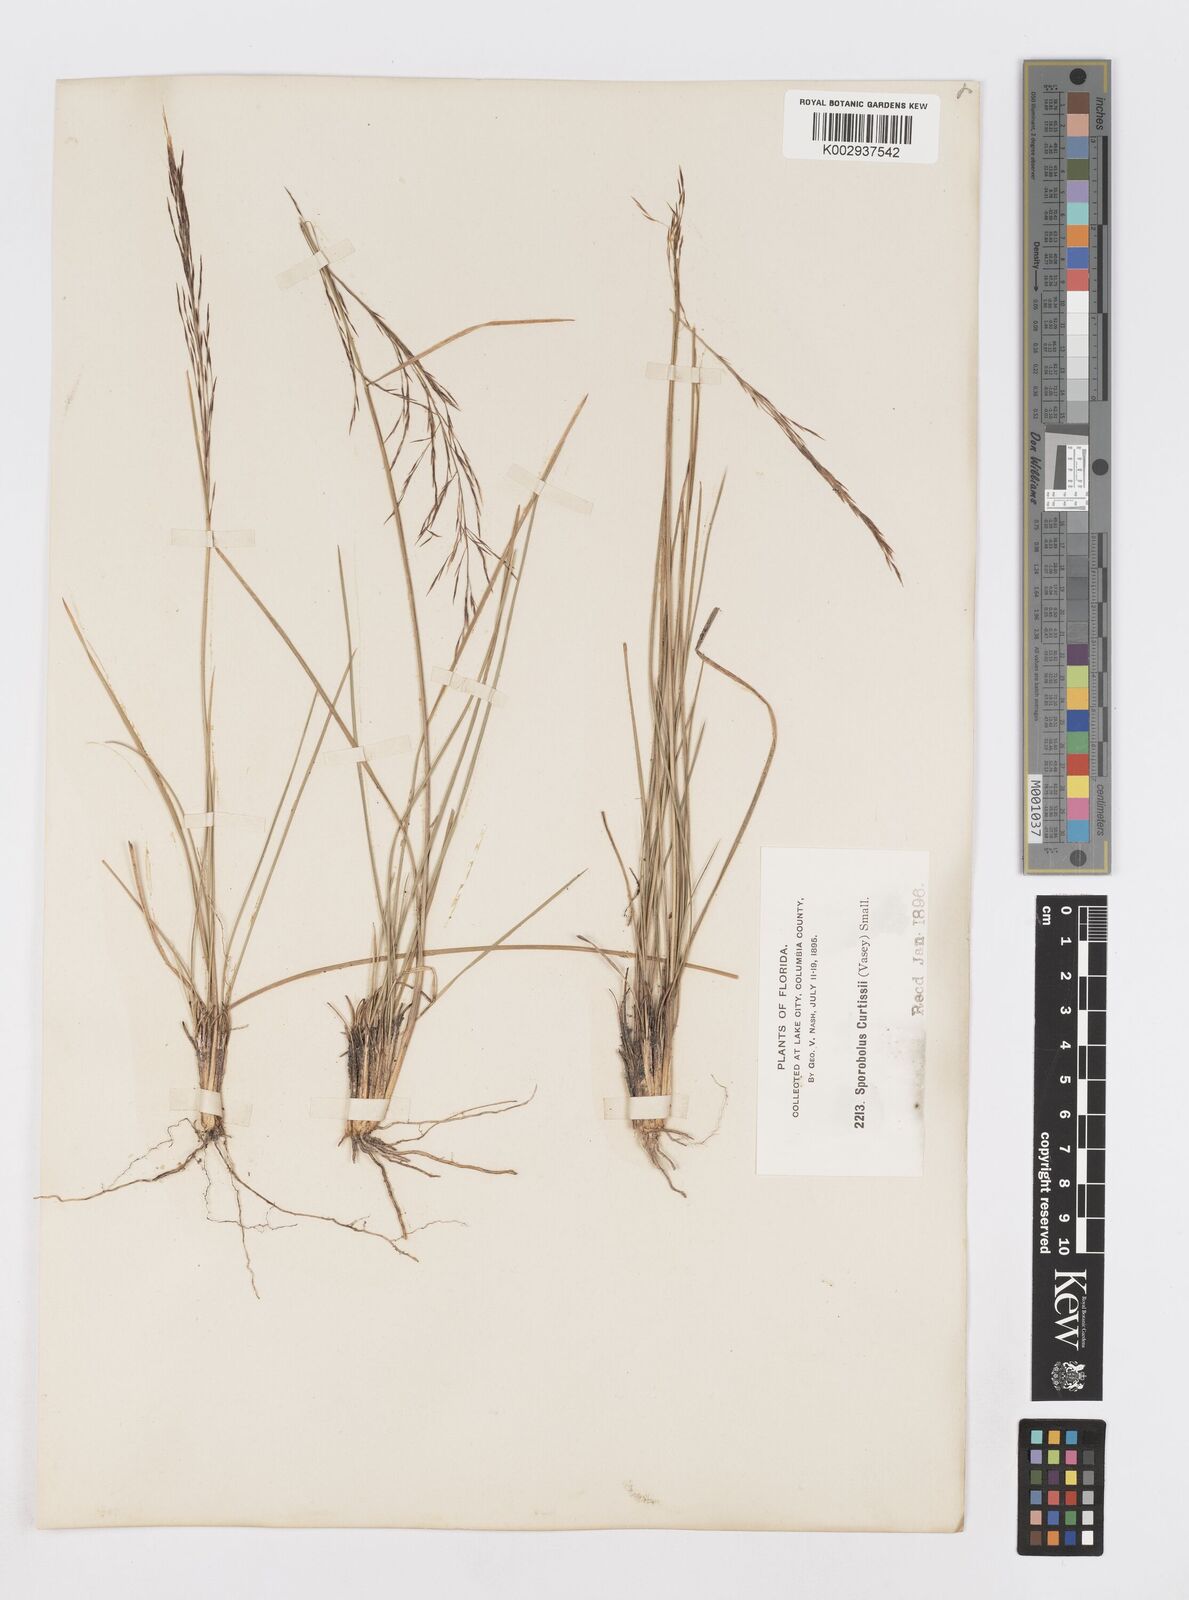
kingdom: Plantae
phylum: Tracheophyta
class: Liliopsida
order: Poales
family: Poaceae
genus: Sporobolus
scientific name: Sporobolus curtissii
